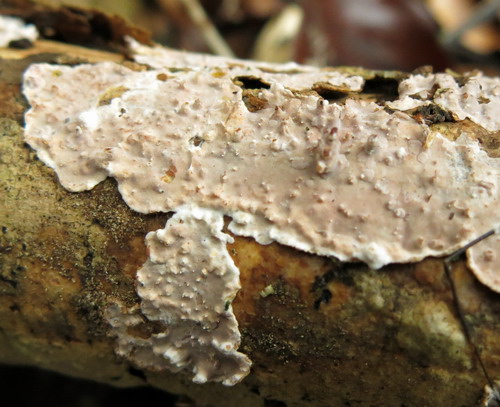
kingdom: Fungi
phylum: Basidiomycota
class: Agaricomycetes
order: Auriculariales
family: Auriculariaceae
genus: Heteroradulum
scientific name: Heteroradulum deglubens
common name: bævreskorpe
